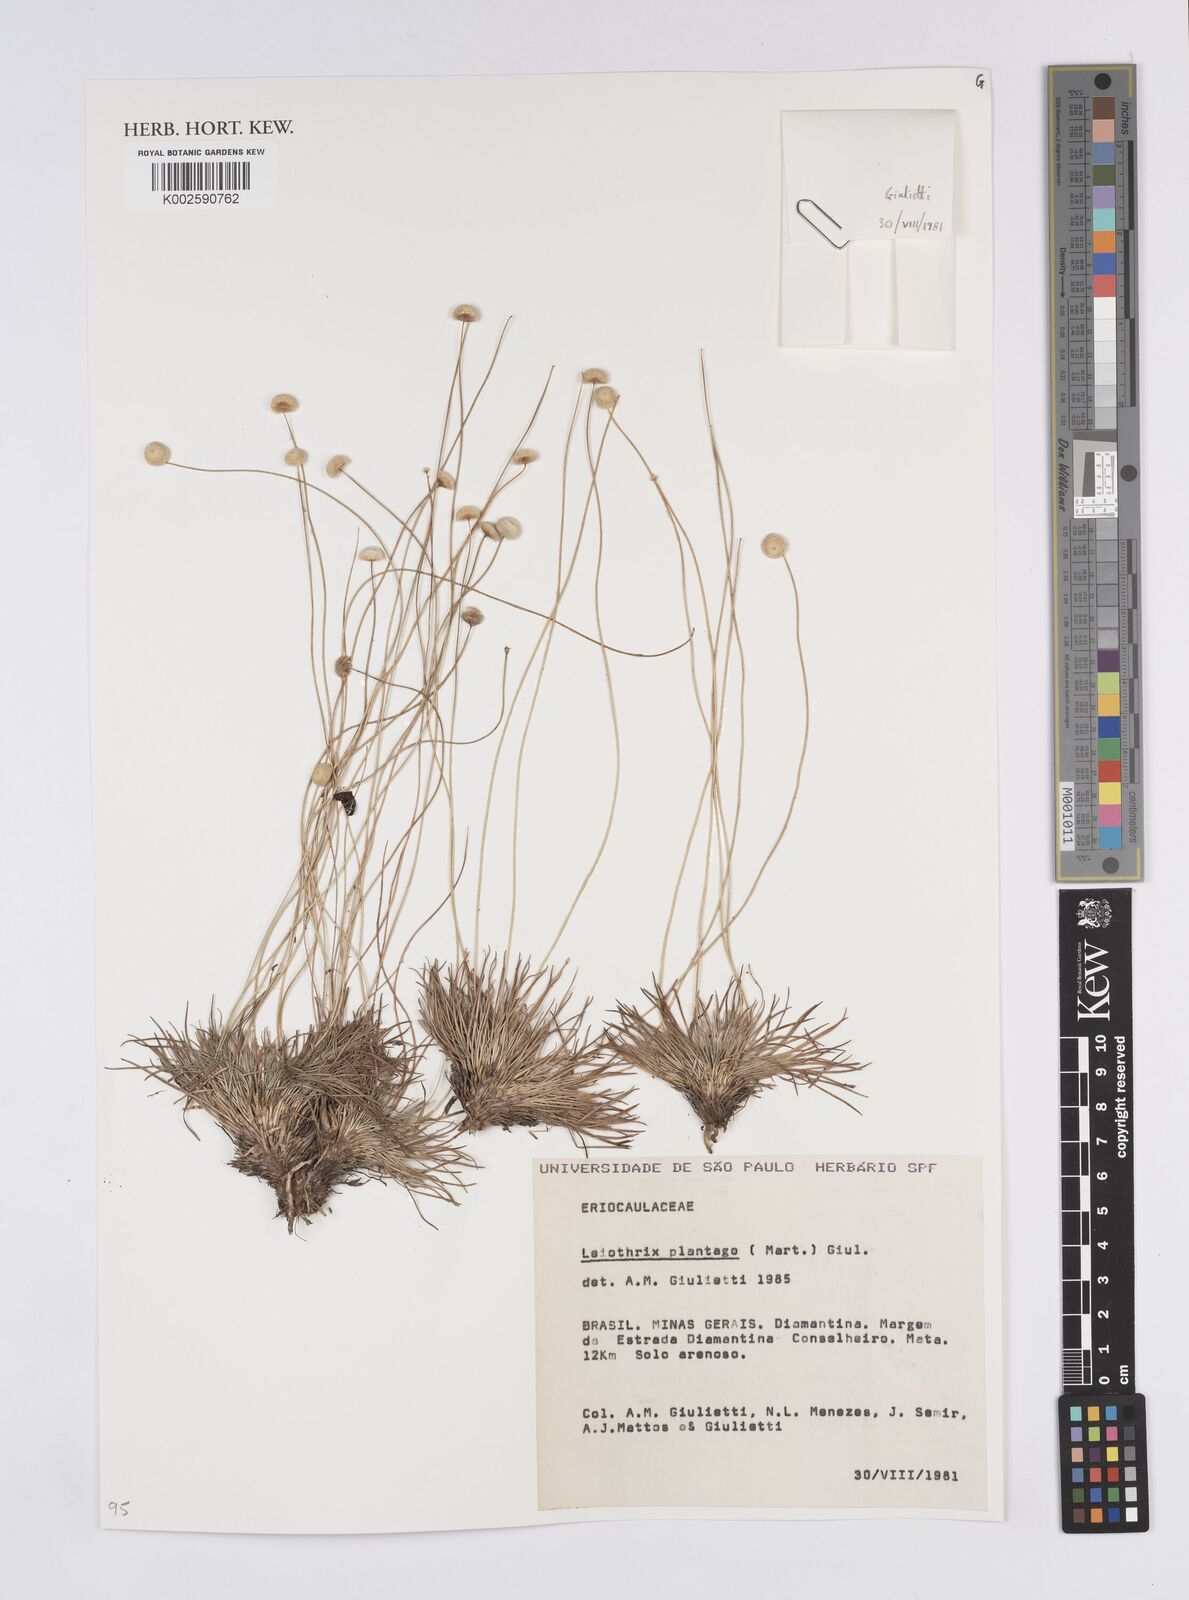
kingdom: Plantae
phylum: Tracheophyta
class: Liliopsida
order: Poales
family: Eriocaulaceae
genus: Leiothrix
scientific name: Leiothrix plantago
